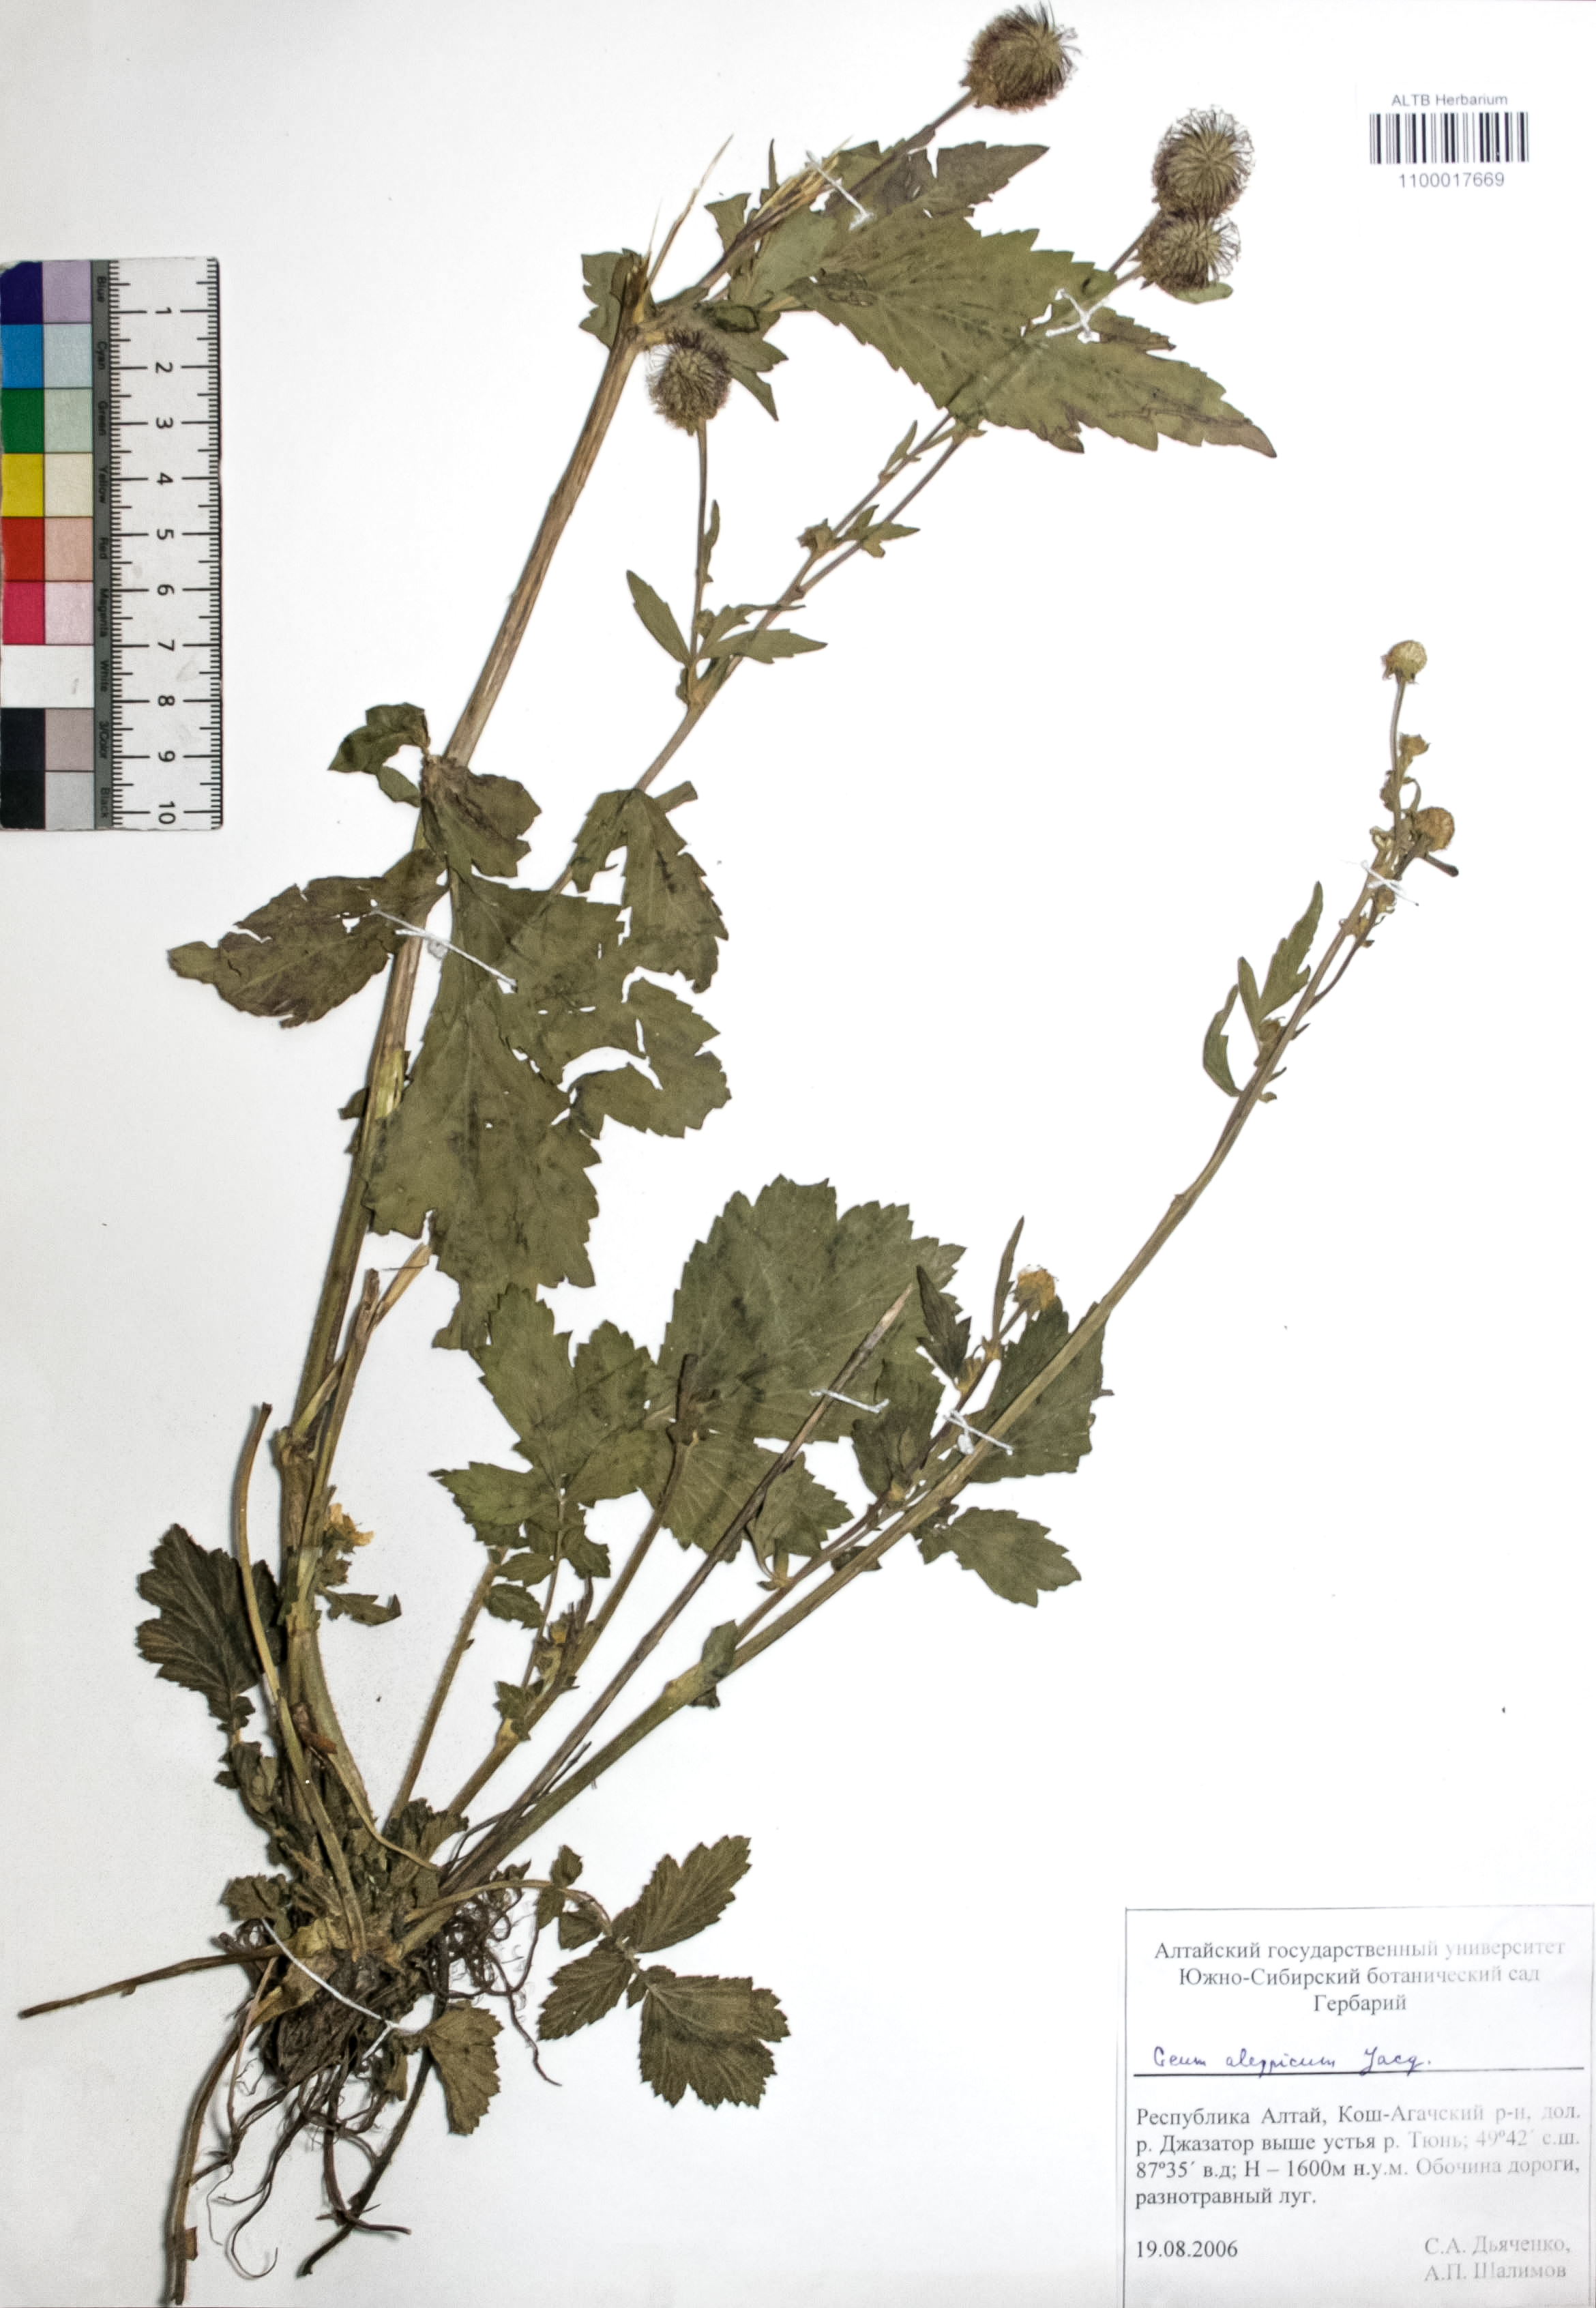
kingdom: Plantae
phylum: Tracheophyta
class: Magnoliopsida
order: Rosales
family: Rosaceae
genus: Geum
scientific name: Geum aleppicum
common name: Yellow avens
